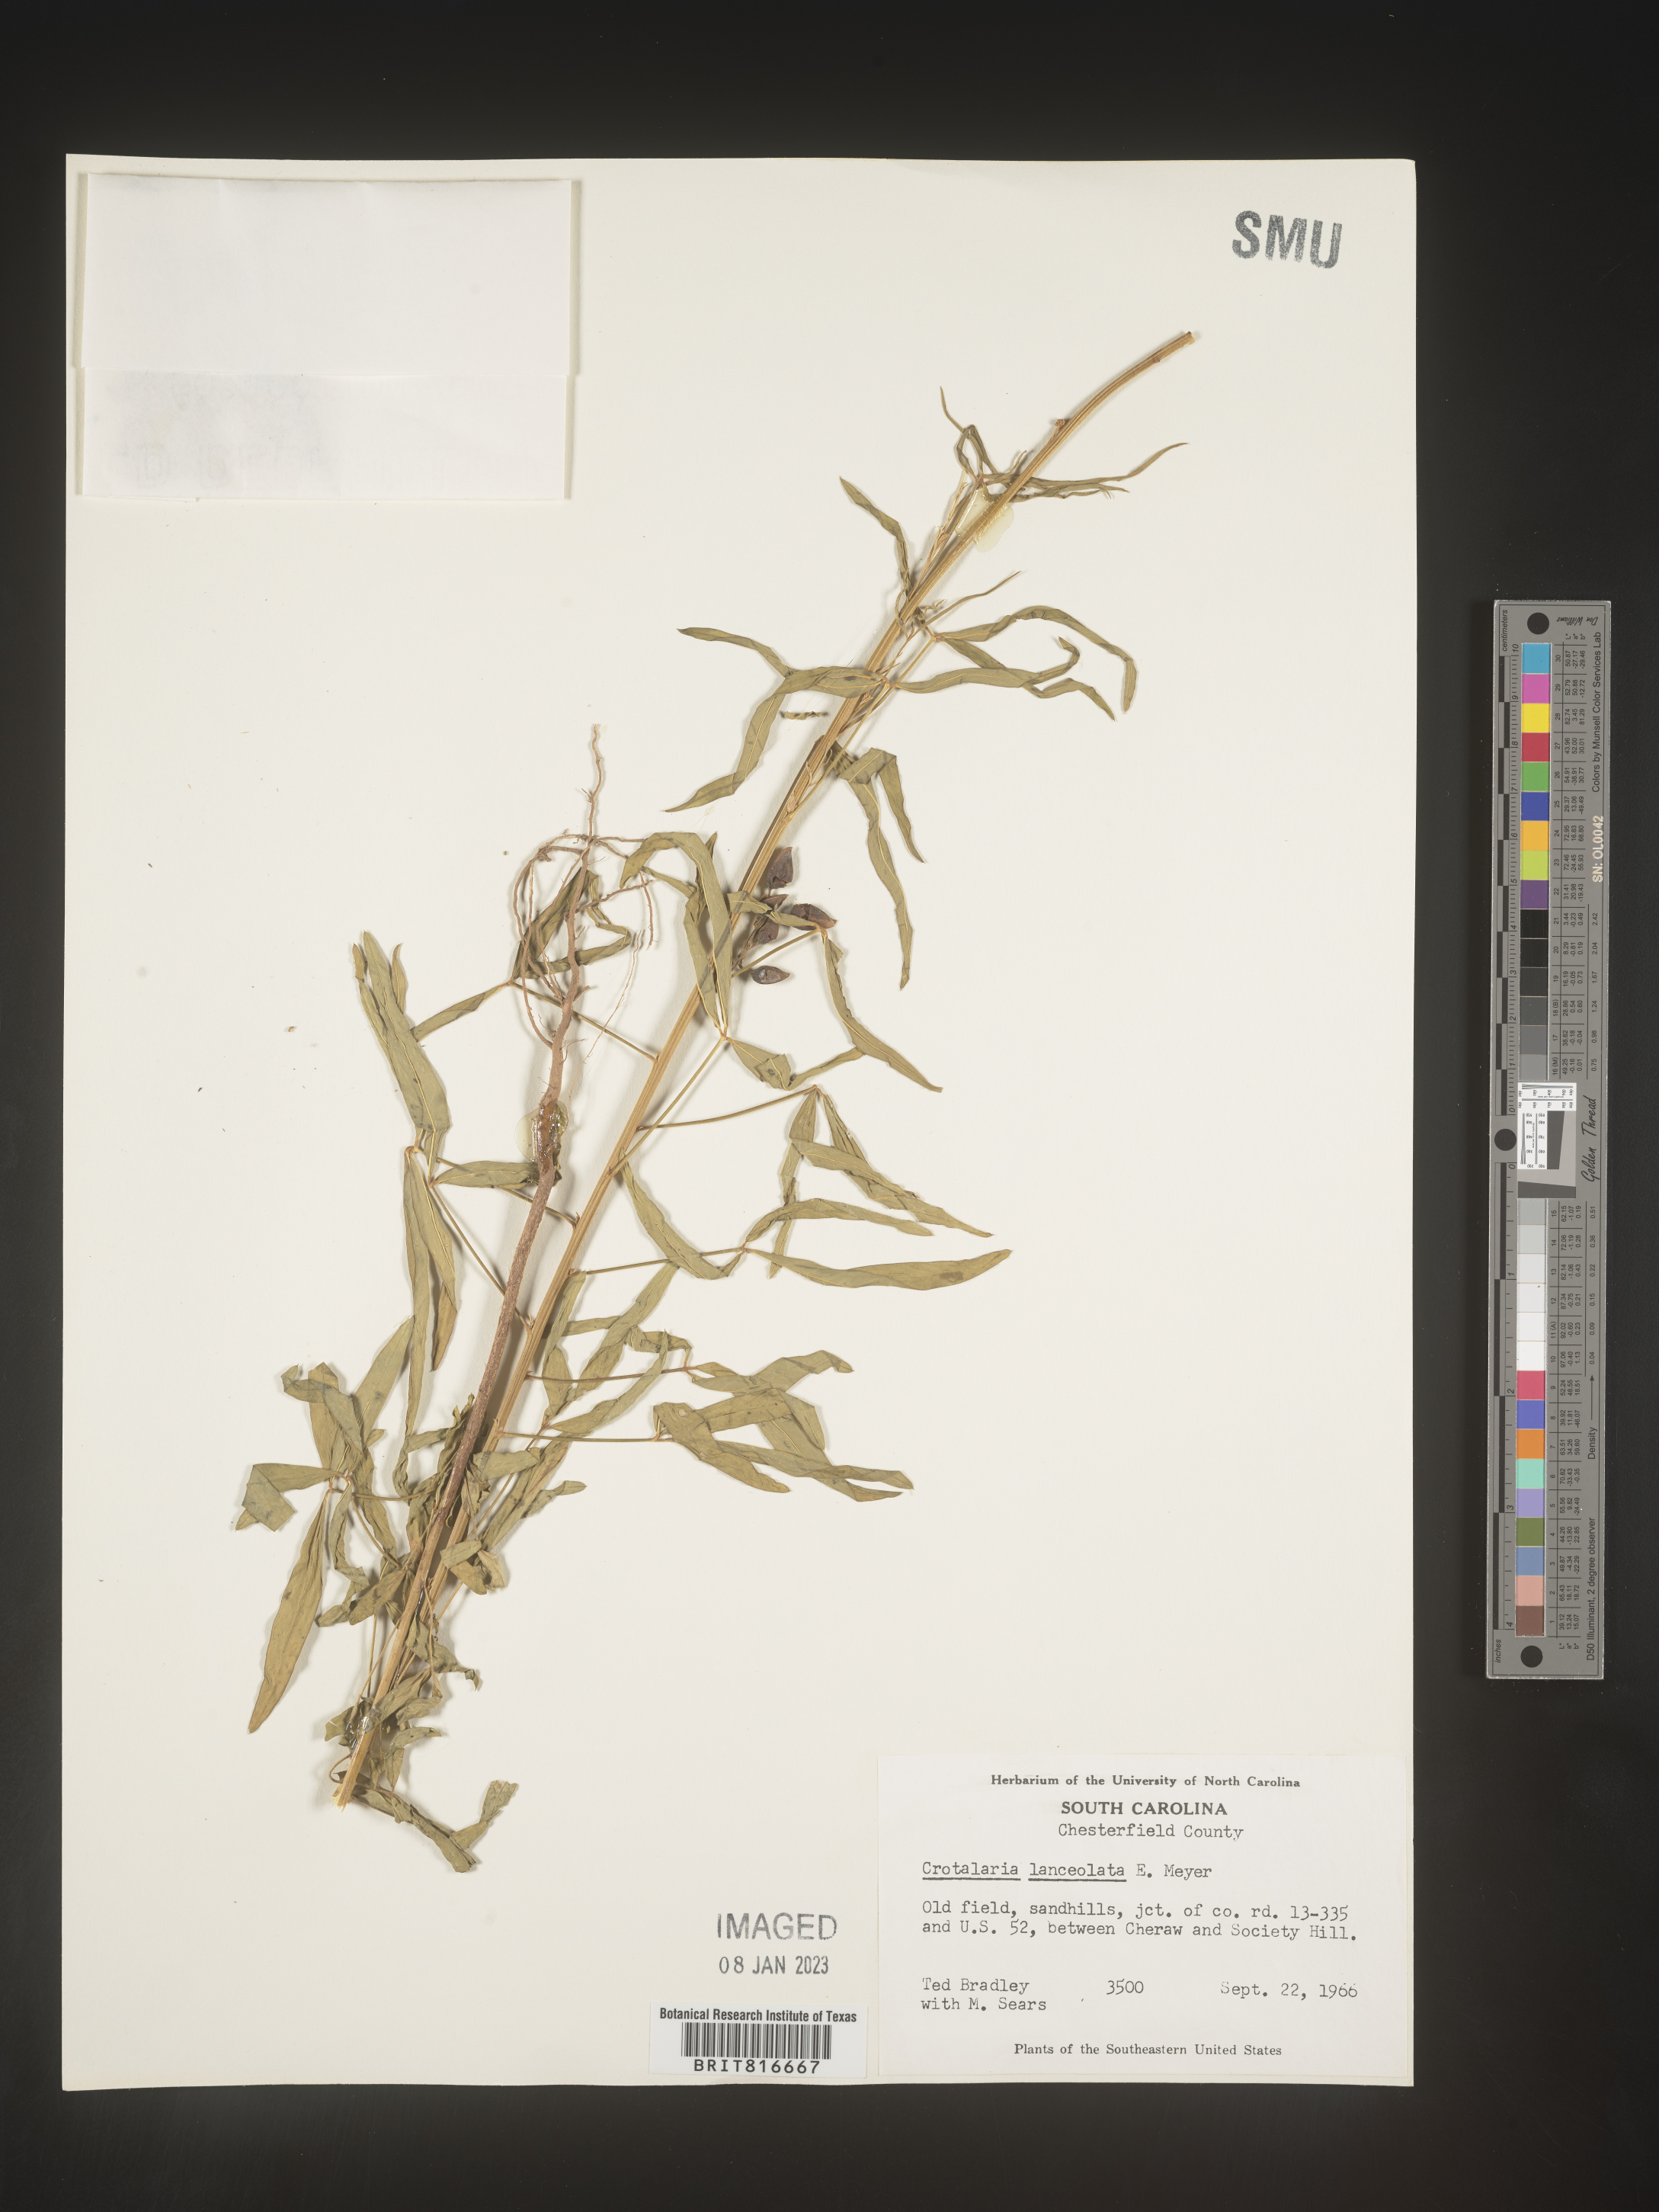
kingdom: Plantae
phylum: Tracheophyta
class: Magnoliopsida
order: Fabales
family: Fabaceae
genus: Crotalaria
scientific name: Crotalaria
